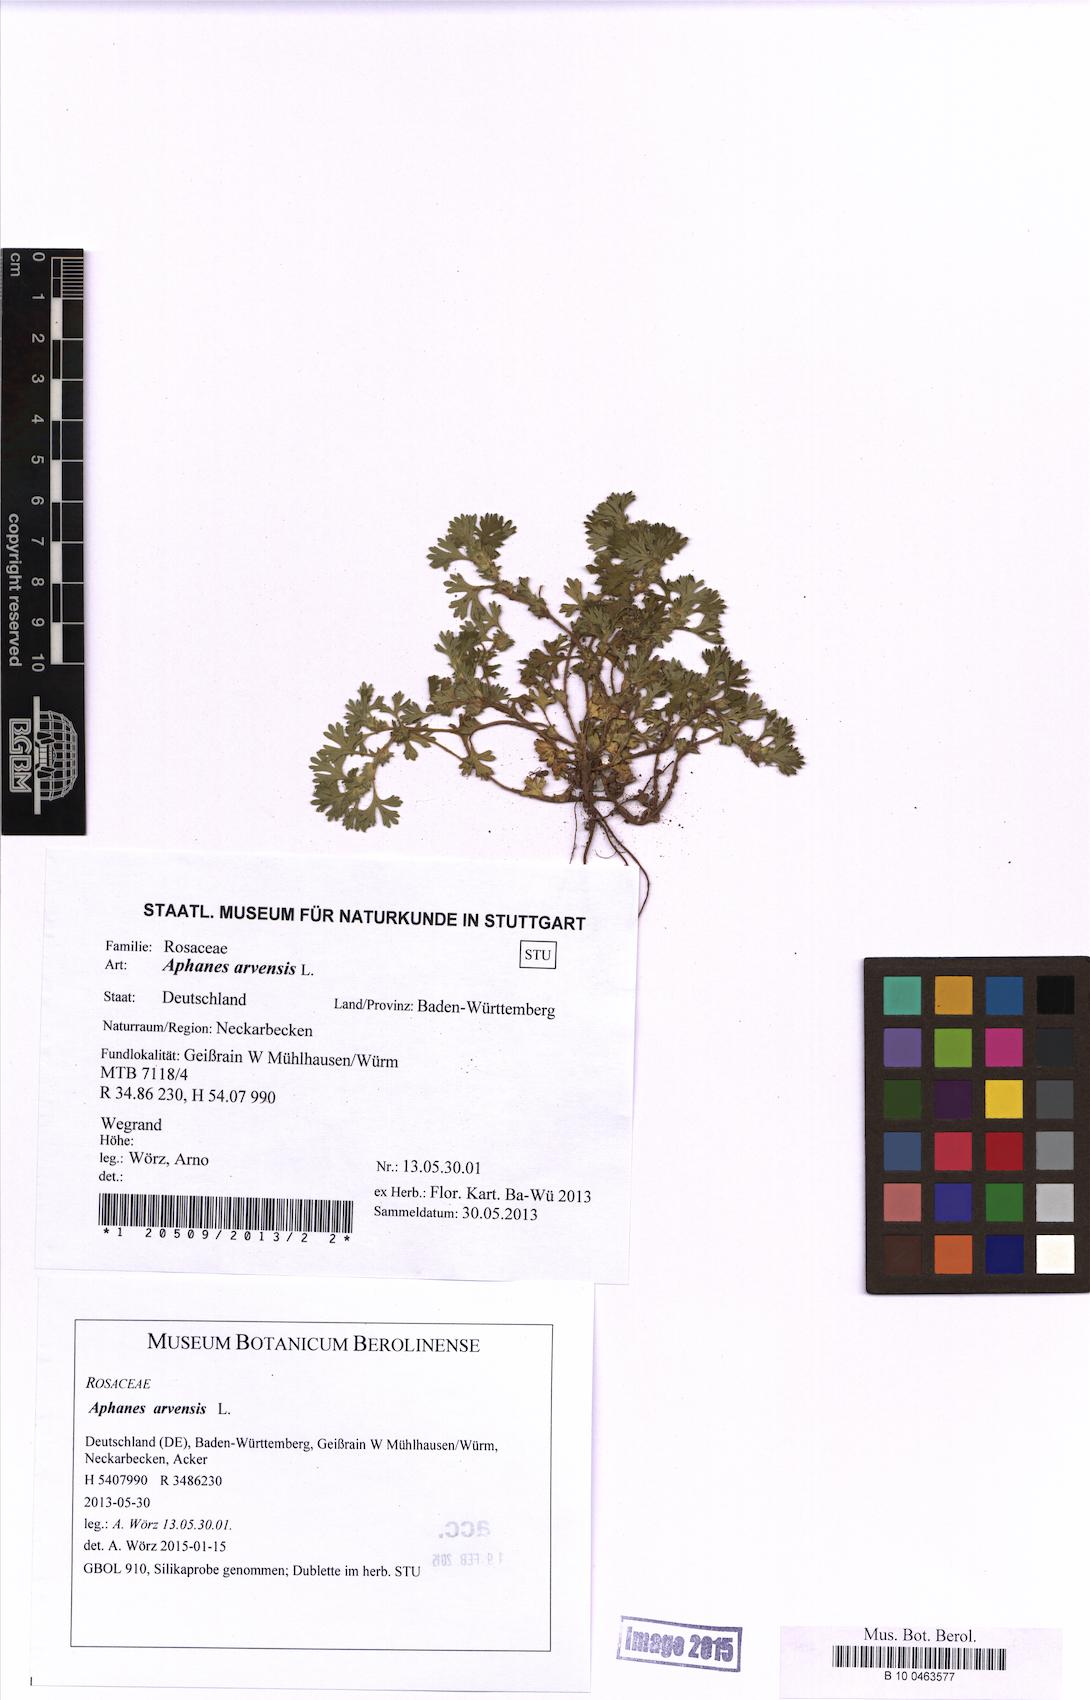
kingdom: Plantae
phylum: Tracheophyta
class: Magnoliopsida
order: Rosales
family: Rosaceae
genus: Aphanes
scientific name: Aphanes arvensis
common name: Parsley-piert
